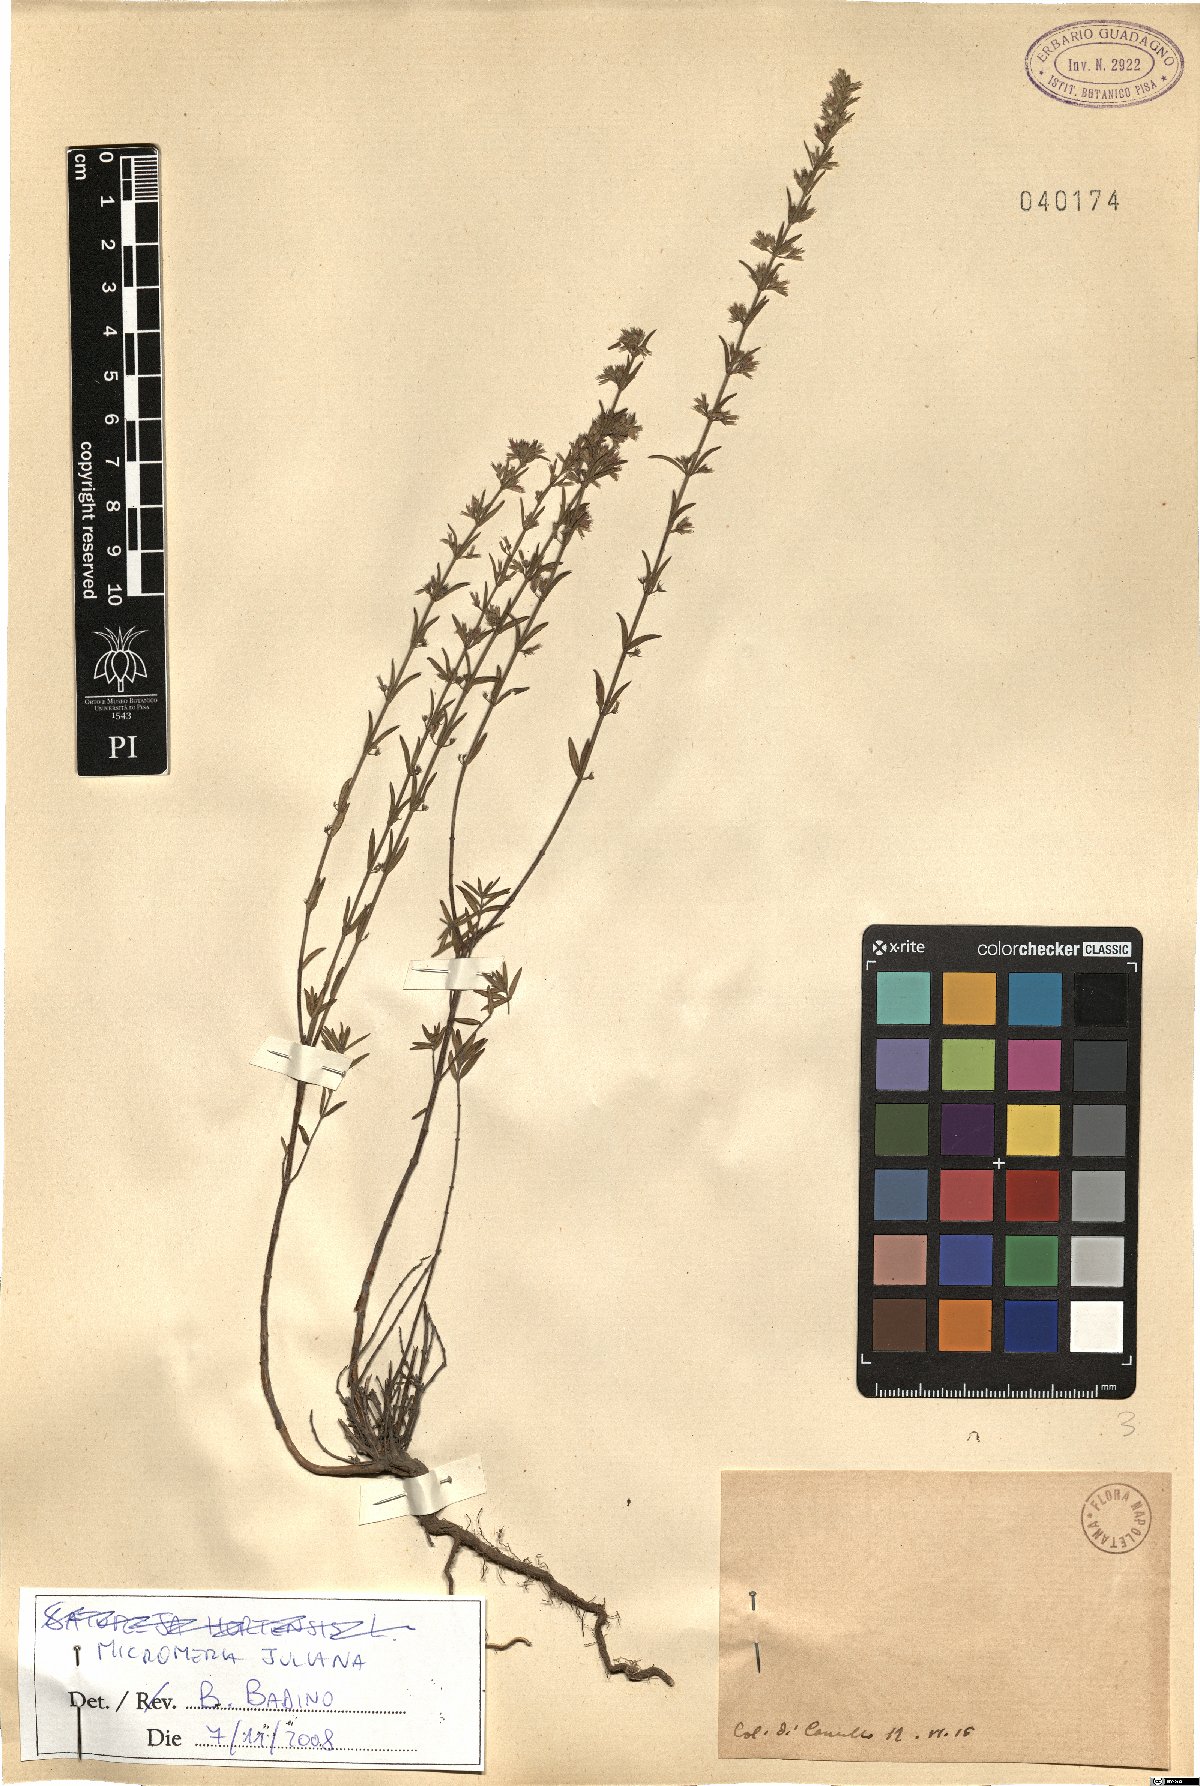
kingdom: Plantae
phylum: Tracheophyta
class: Magnoliopsida
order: Lamiales
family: Lamiaceae
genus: Micromeria
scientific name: Micromeria juliana
